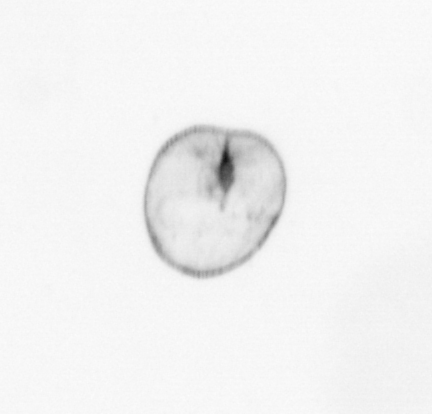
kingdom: Chromista
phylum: Myzozoa
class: Dinophyceae
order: Noctilucales
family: Noctilucaceae
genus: Noctiluca
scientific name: Noctiluca scintillans
